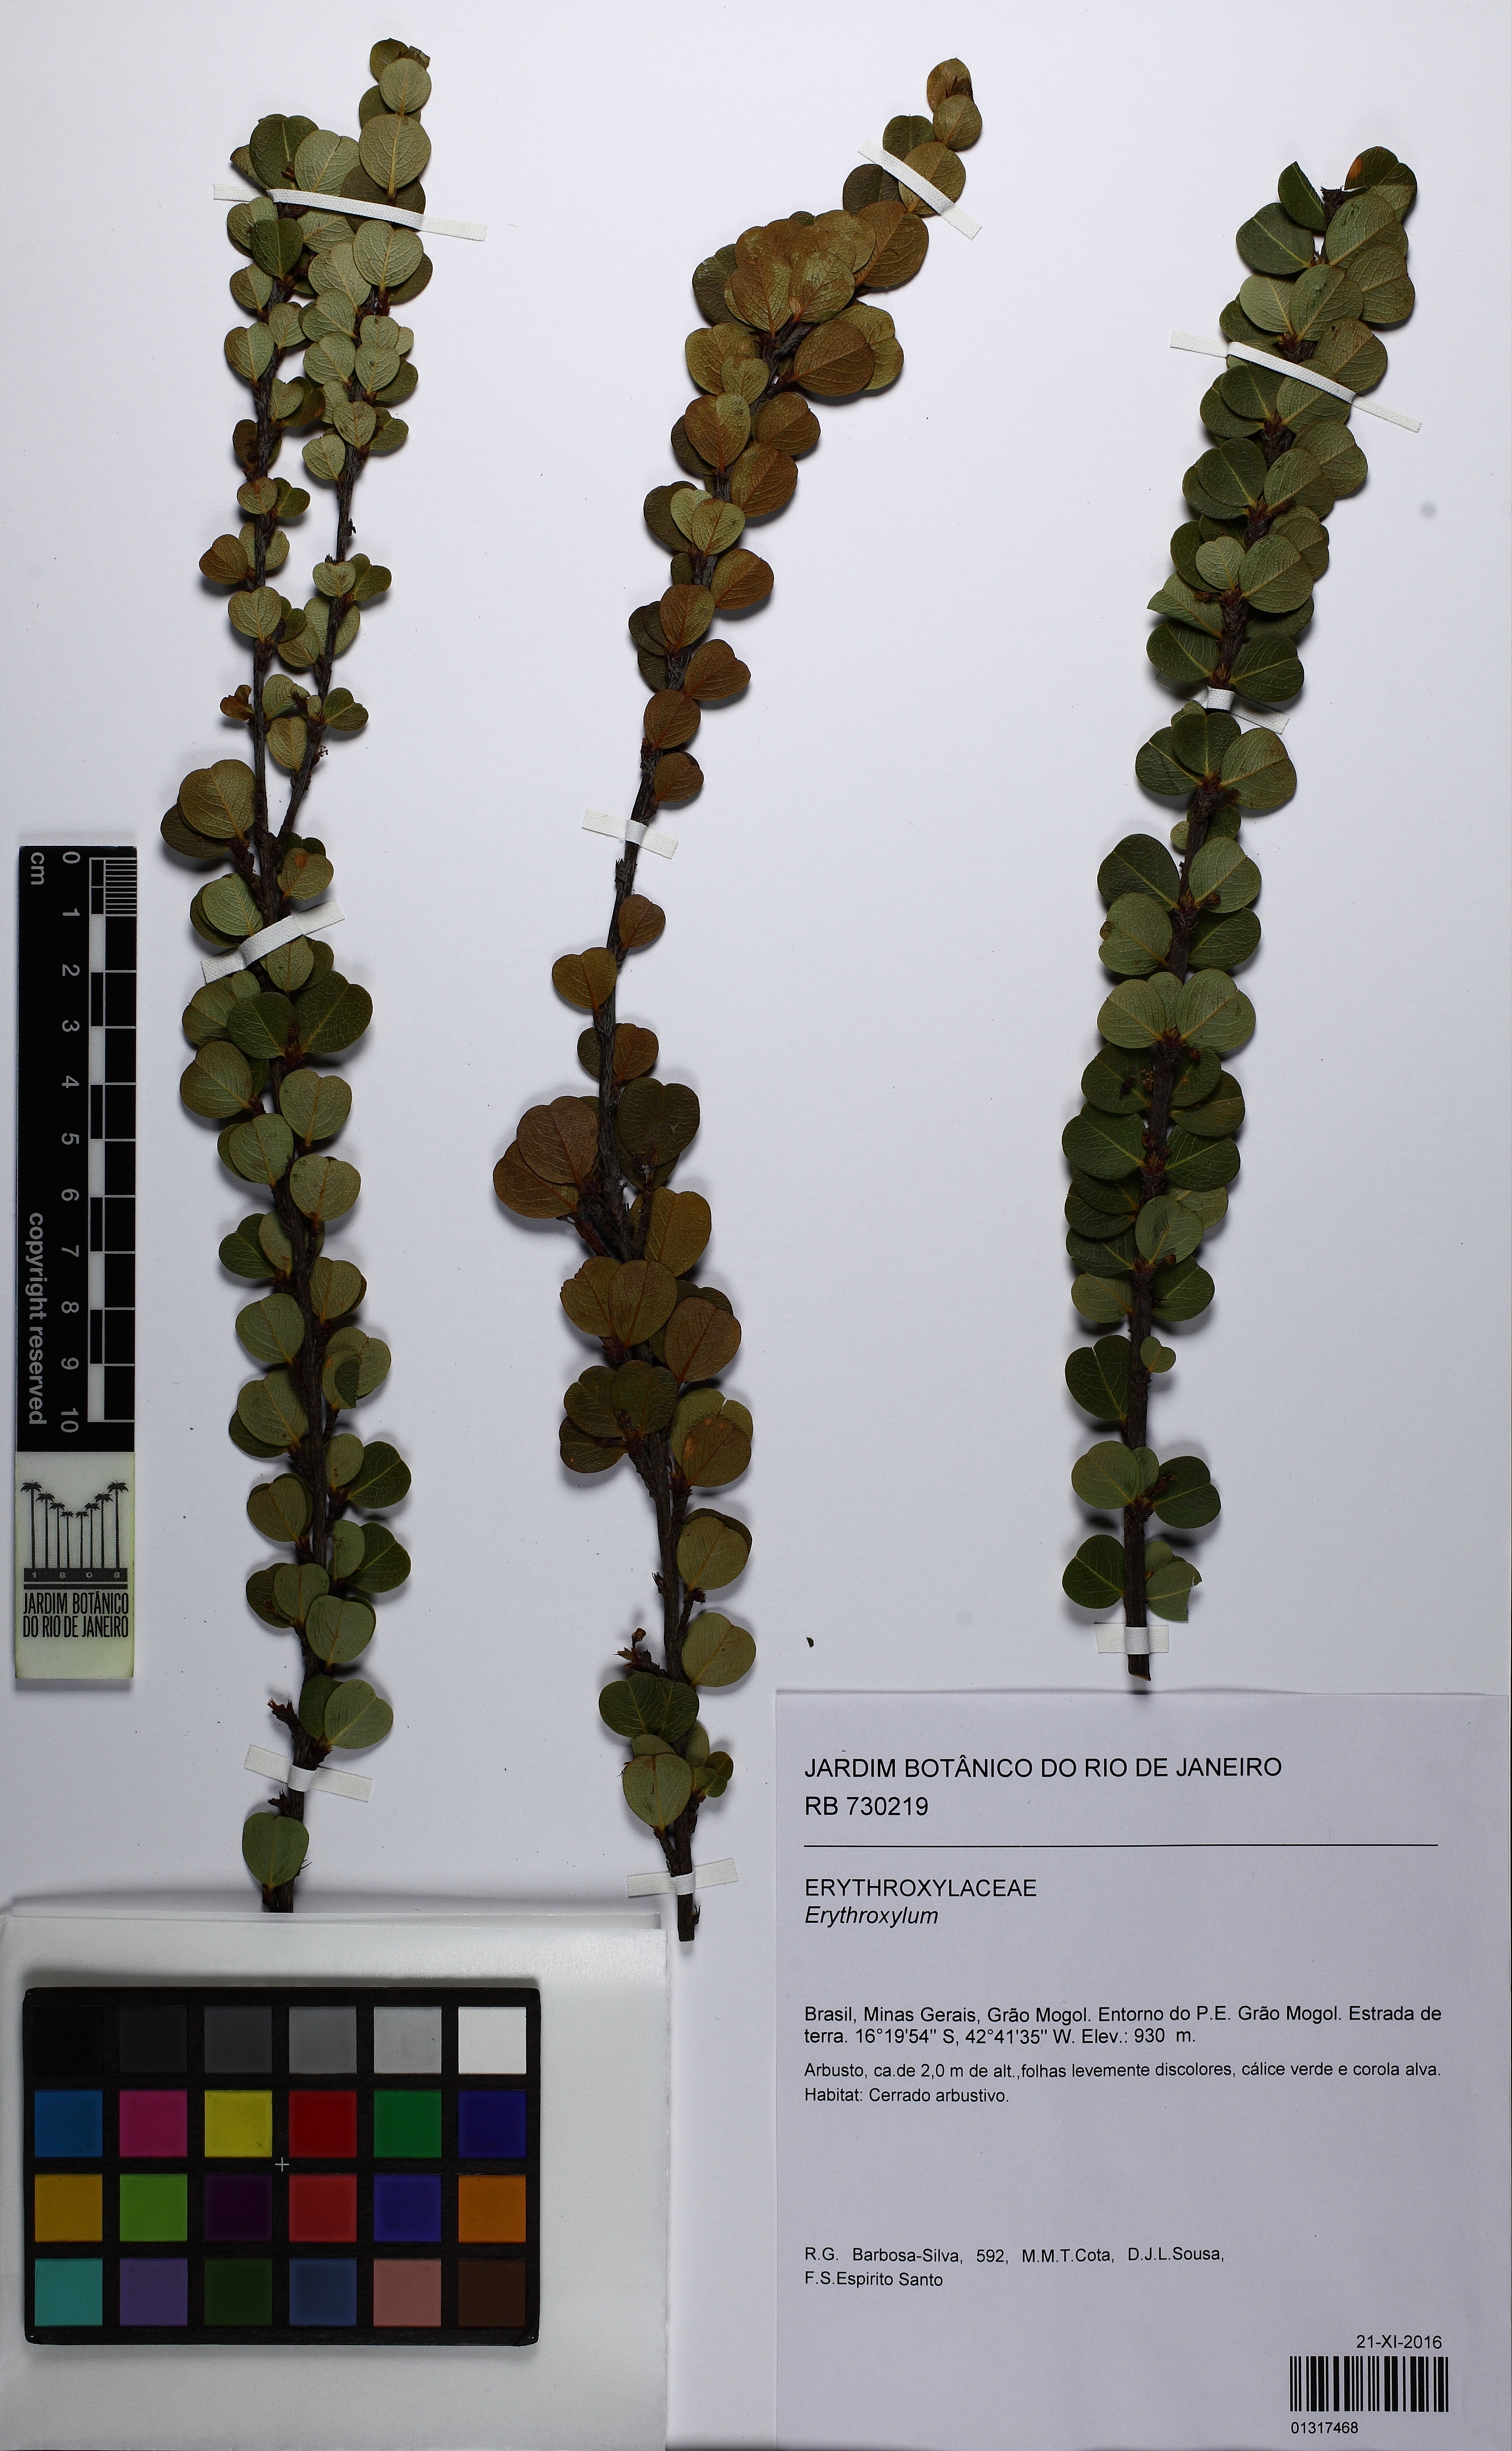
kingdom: Plantae
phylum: Tracheophyta
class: Magnoliopsida
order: Malpighiales
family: Erythroxylaceae
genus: Erythroxylum
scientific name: Erythroxylum
